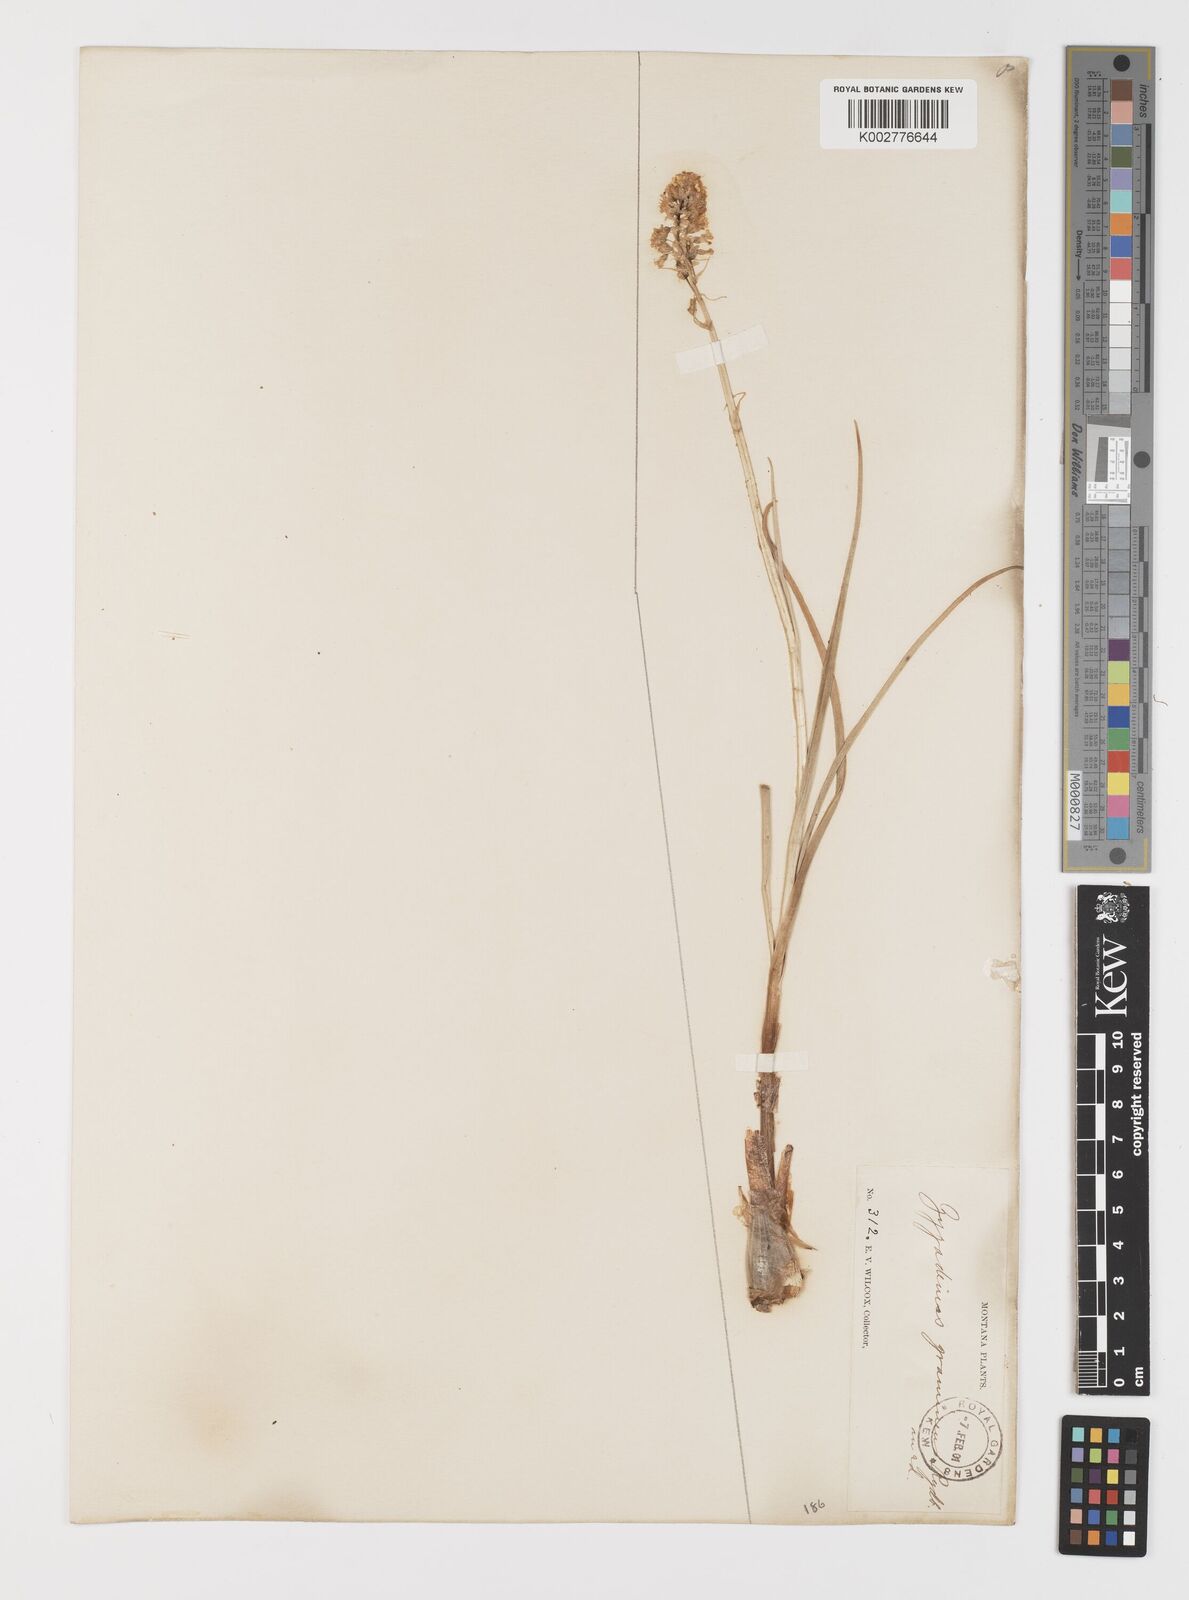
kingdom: Plantae
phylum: Tracheophyta
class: Liliopsida
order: Liliales
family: Melanthiaceae
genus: Toxicoscordion
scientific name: Toxicoscordion venenosum
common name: Meadow death camas
